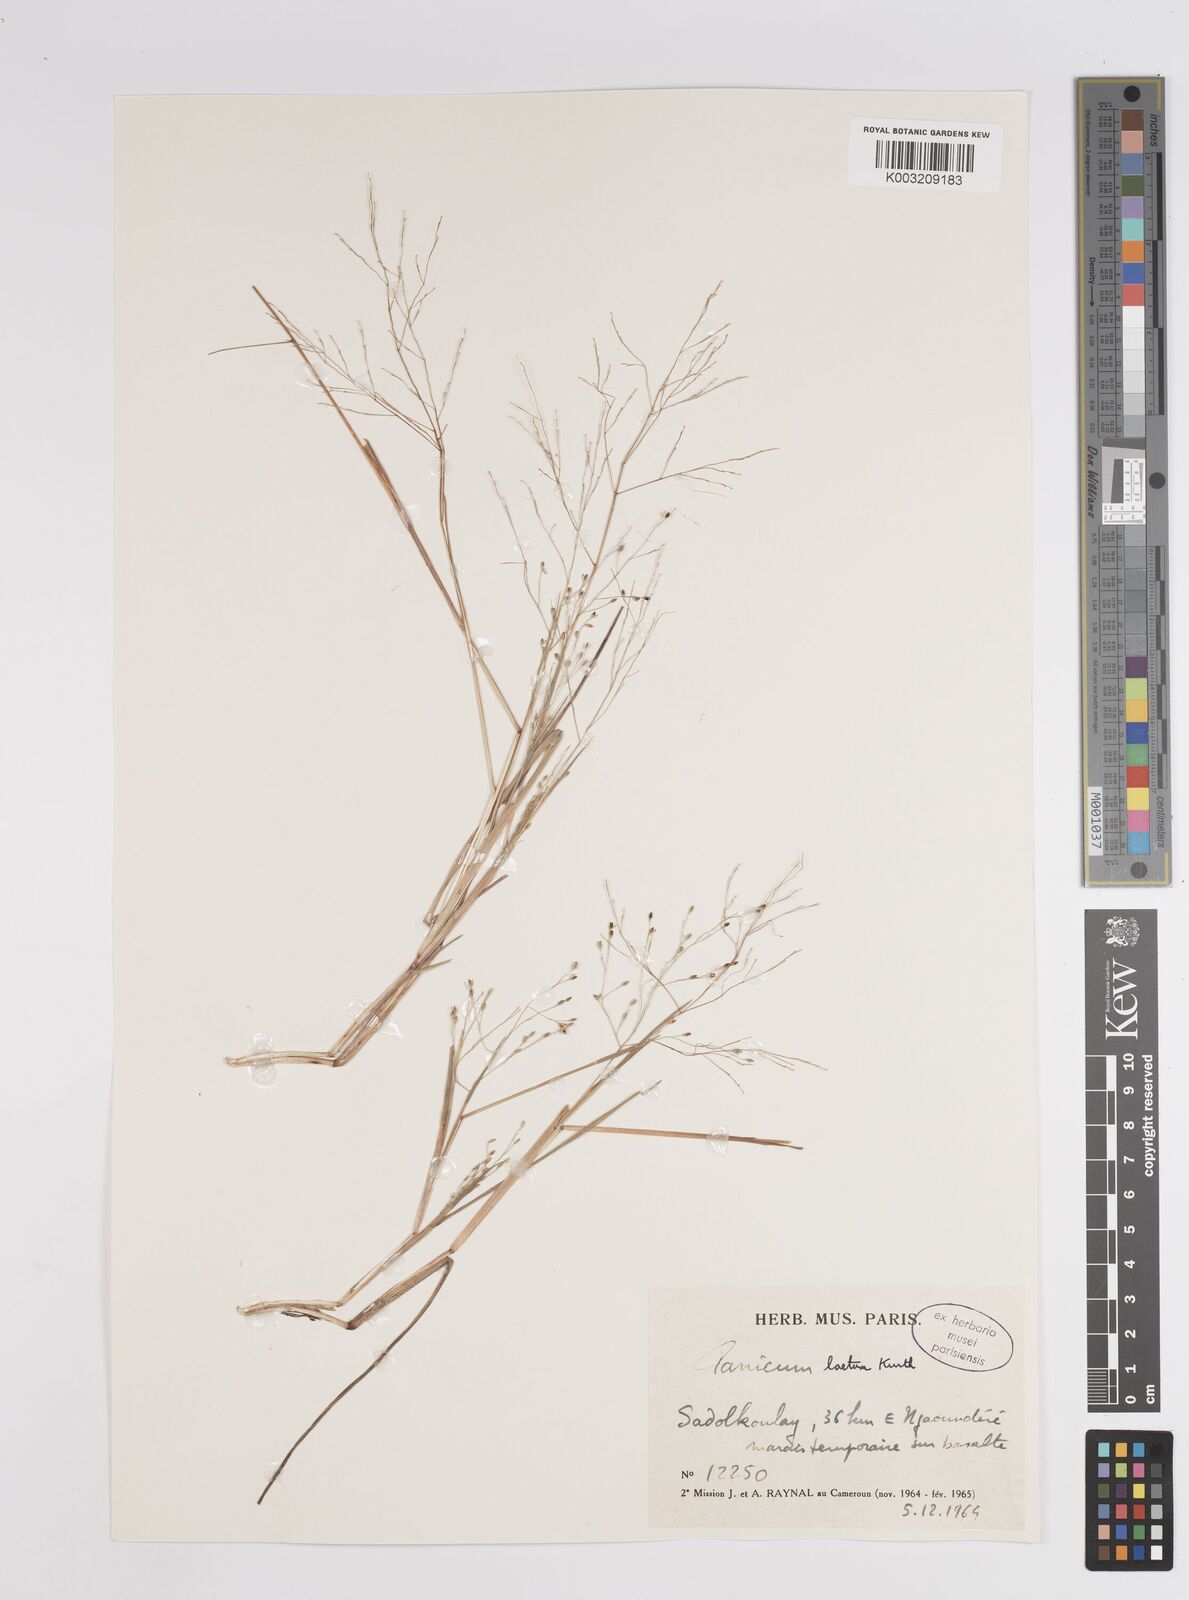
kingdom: Plantae
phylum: Tracheophyta
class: Liliopsida
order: Poales
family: Poaceae
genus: Panicum
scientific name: Panicum
